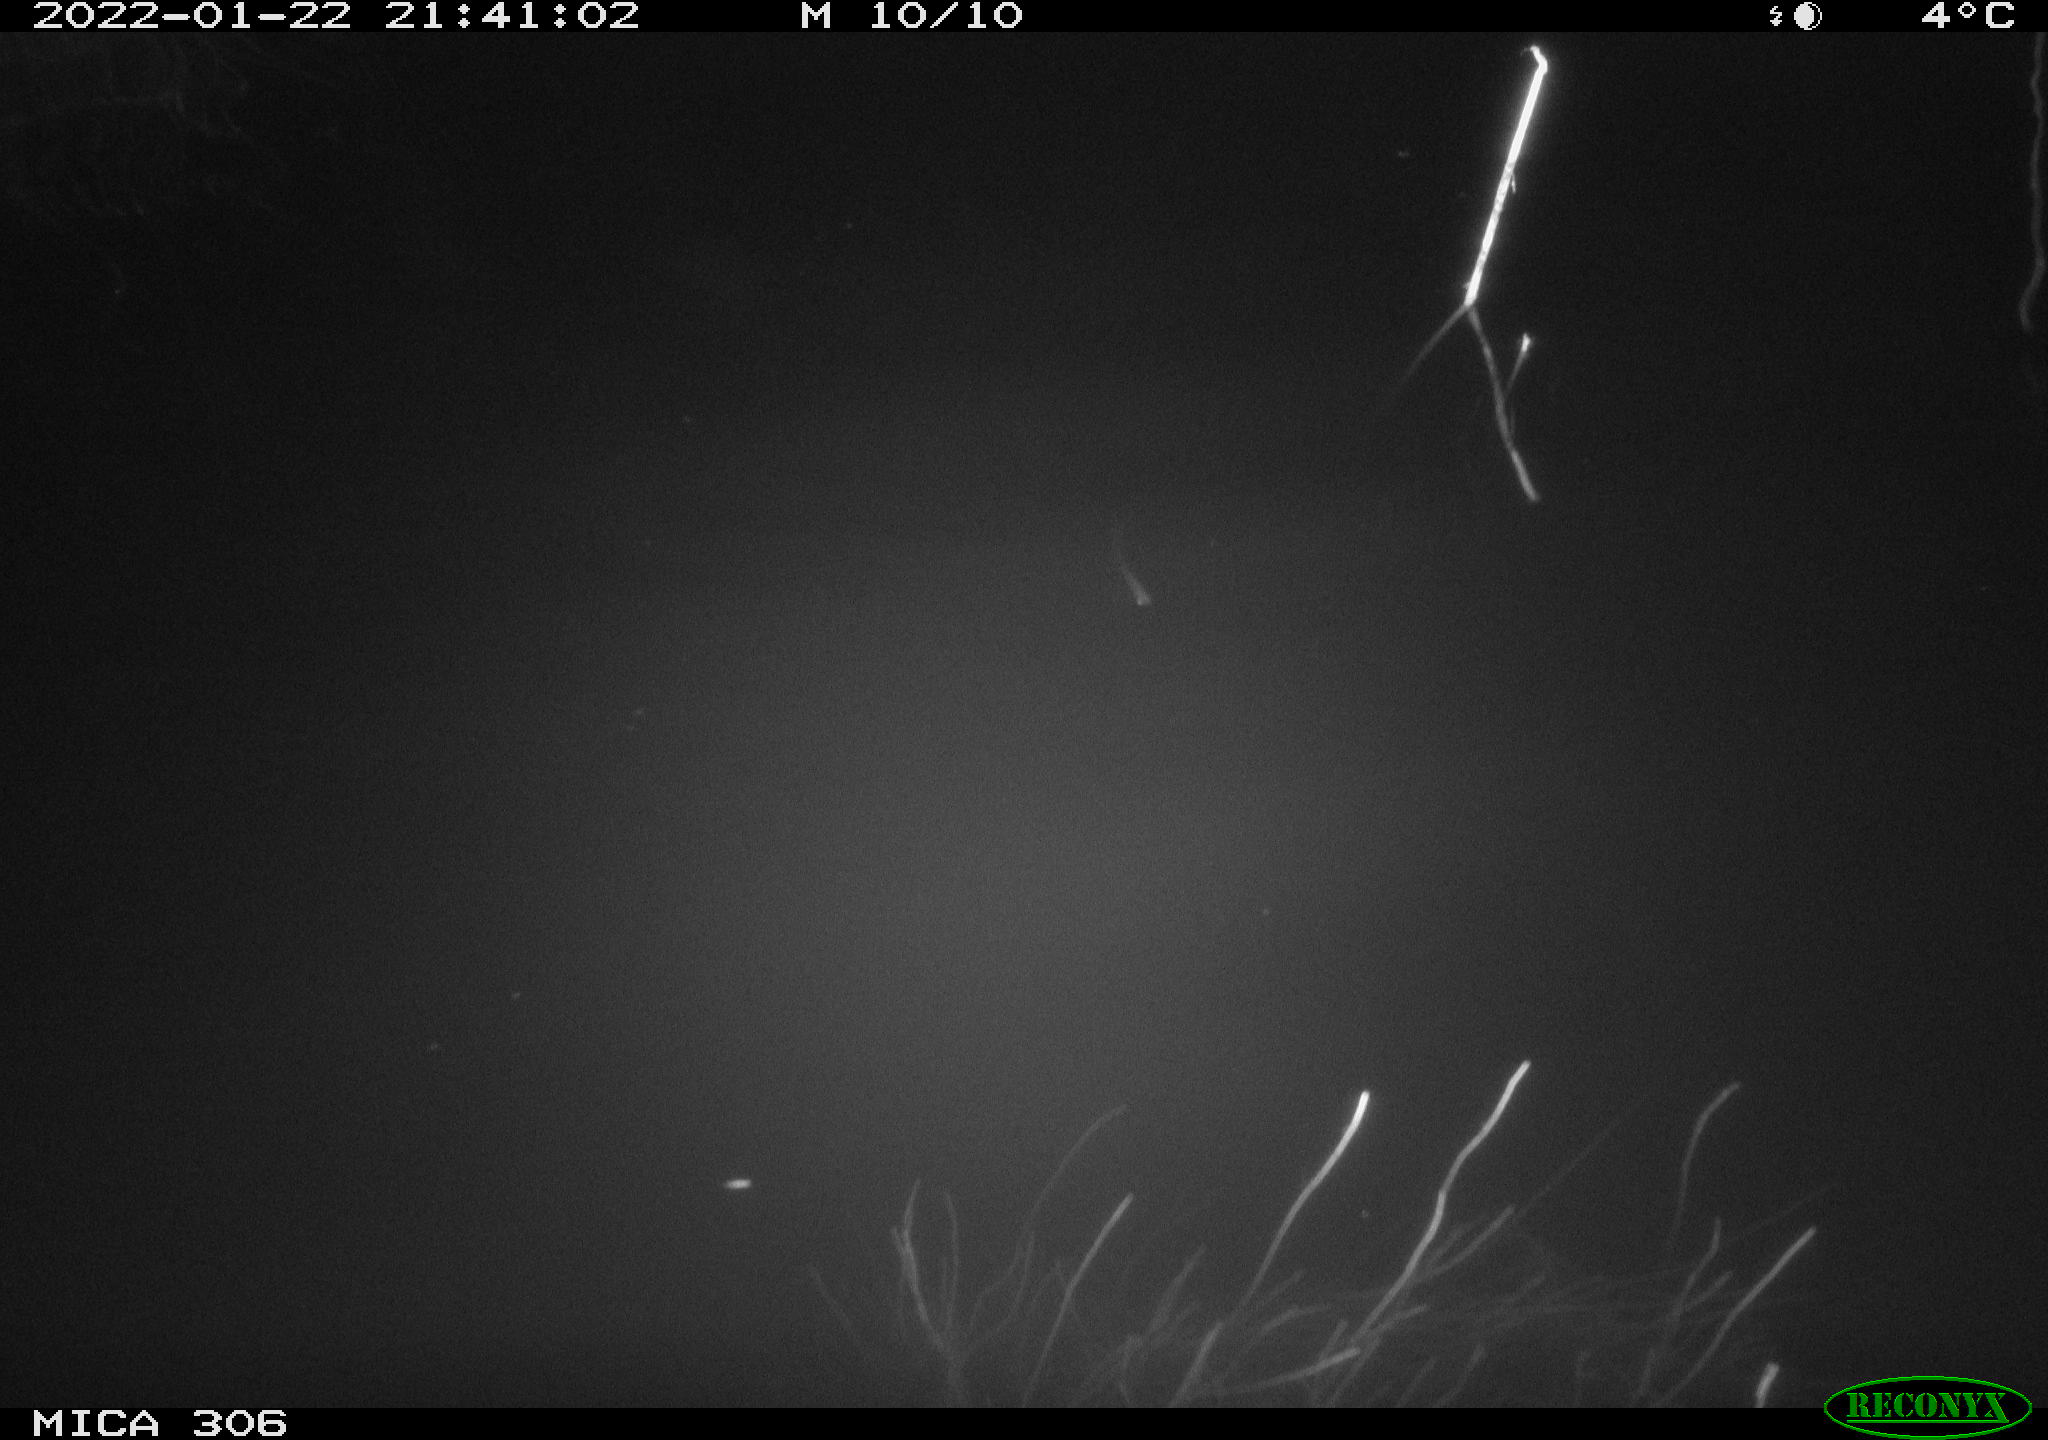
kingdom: Animalia
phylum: Chordata
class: Mammalia
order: Rodentia
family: Cricetidae
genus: Ondatra
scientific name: Ondatra zibethicus
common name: Muskrat
